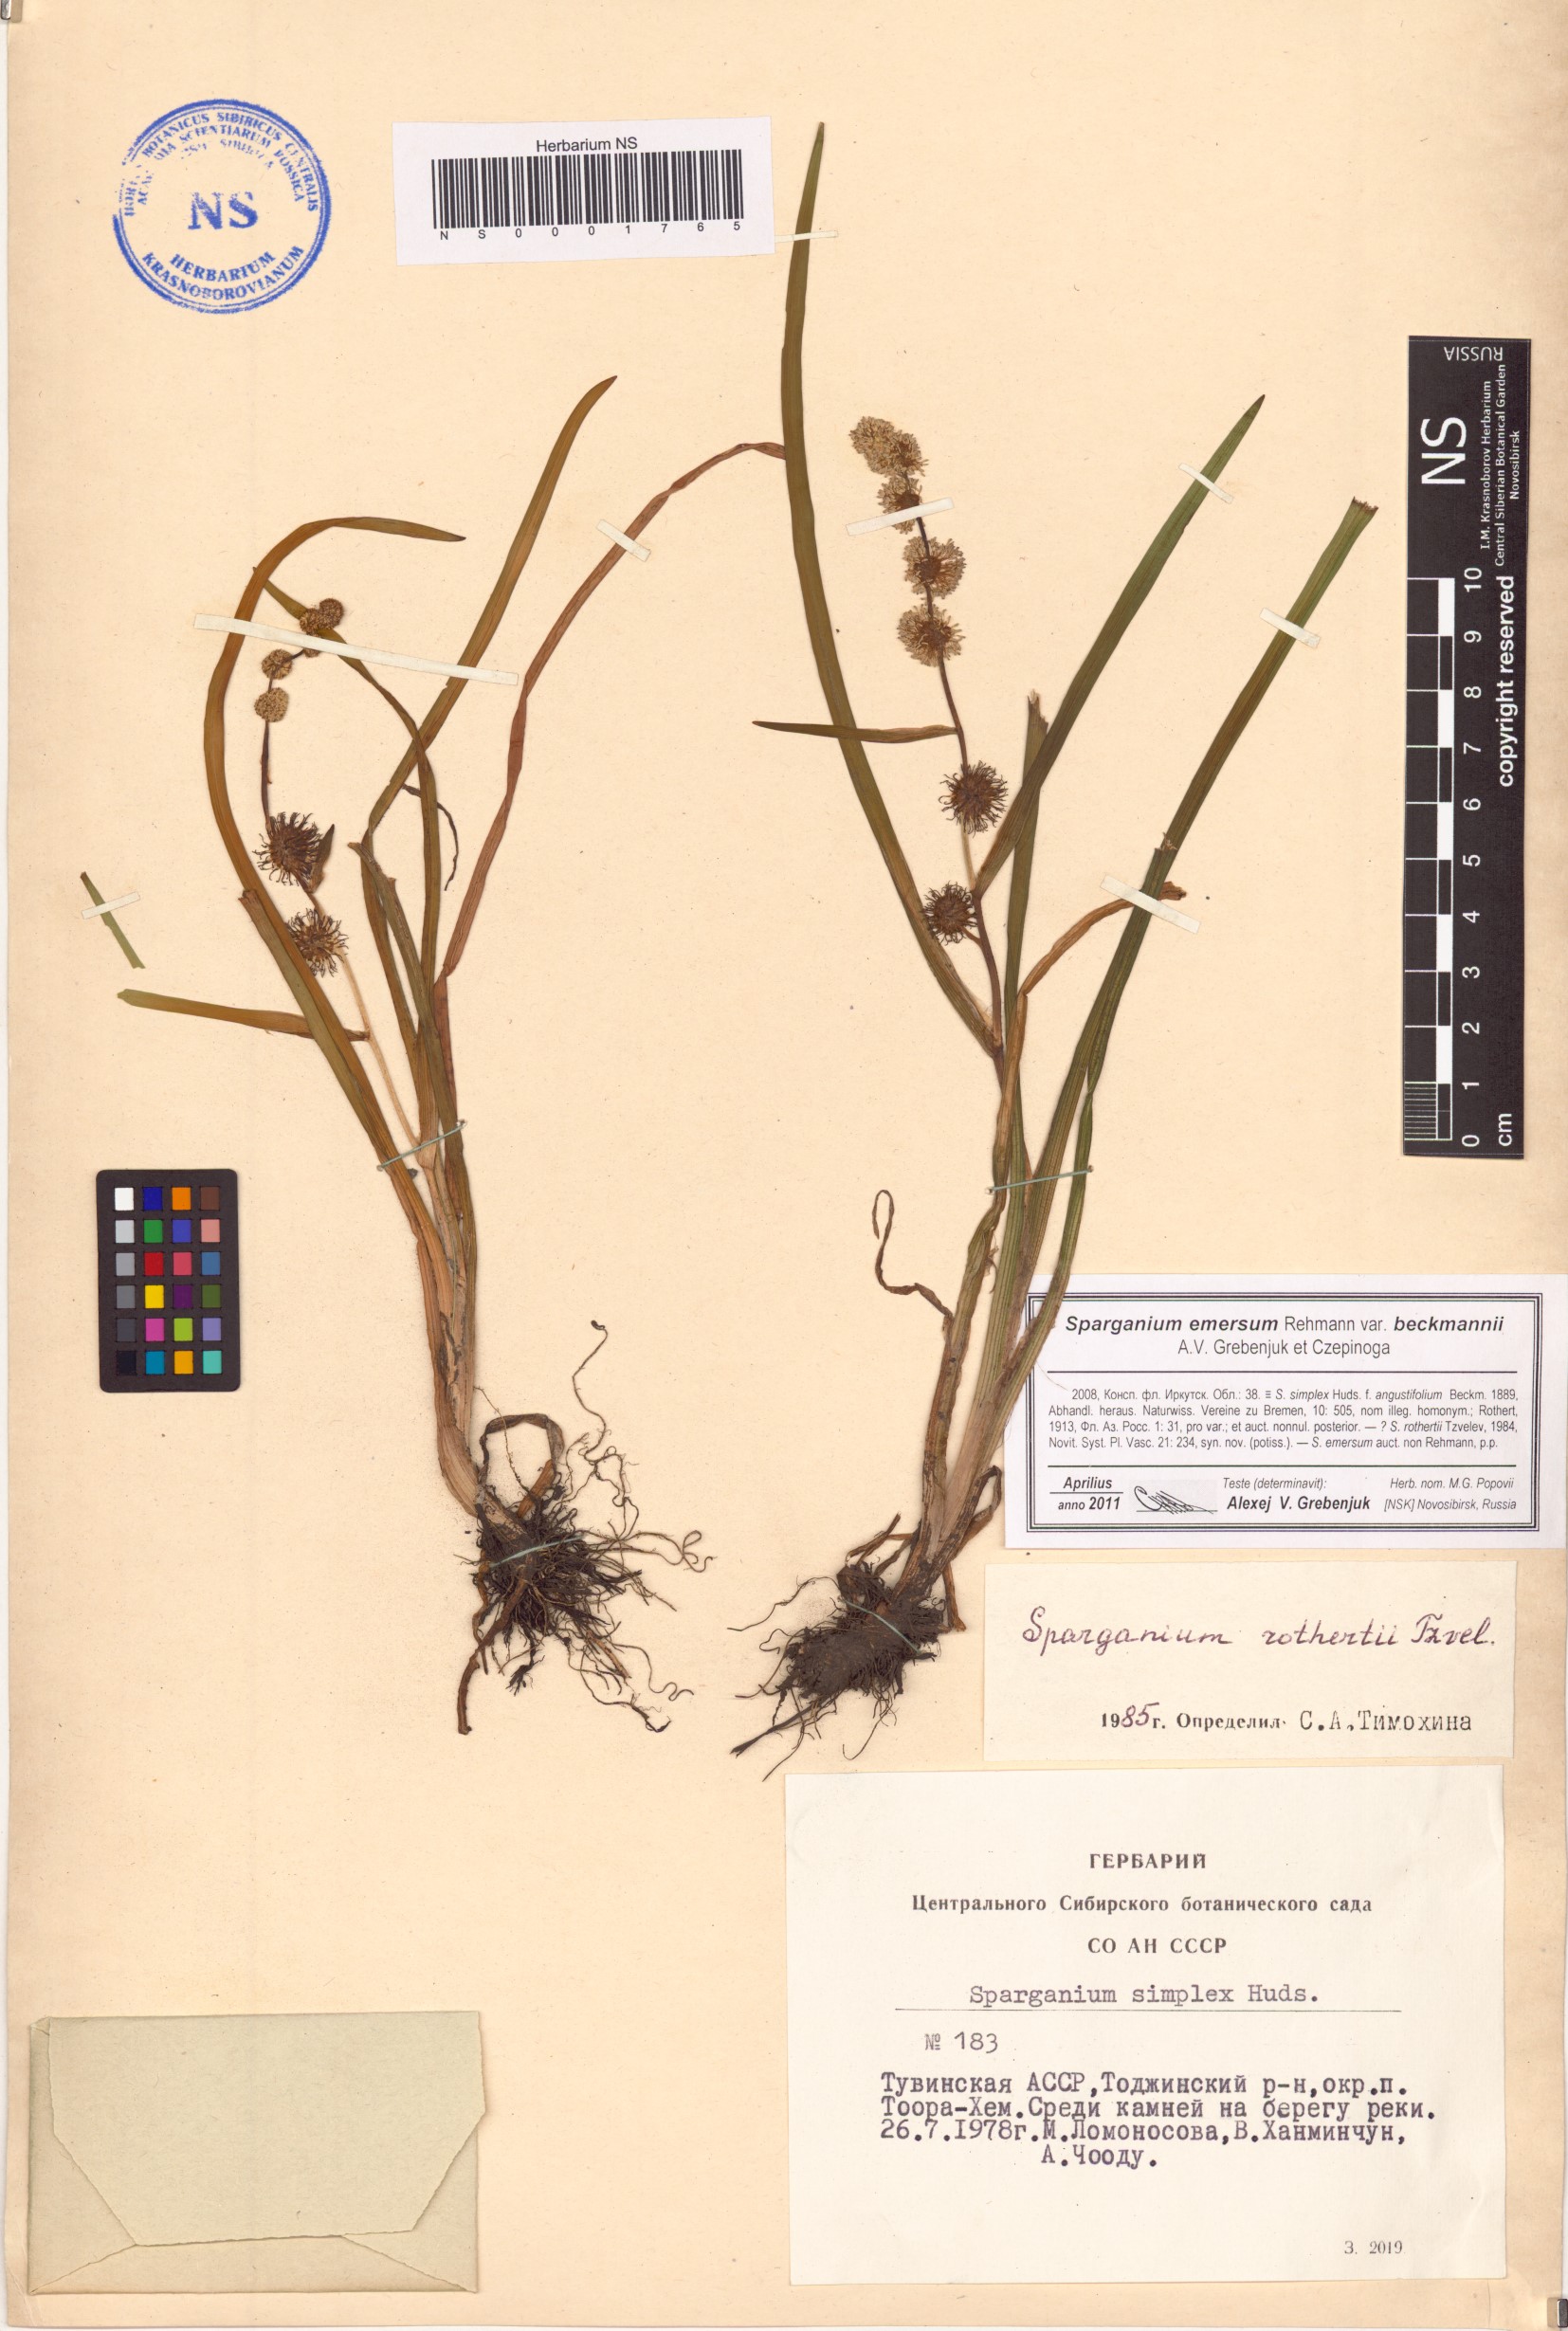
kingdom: Plantae
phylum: Tracheophyta
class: Liliopsida
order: Poales
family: Typhaceae
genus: Sparganium
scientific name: Sparganium emersum
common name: Unbranched bur-reed
